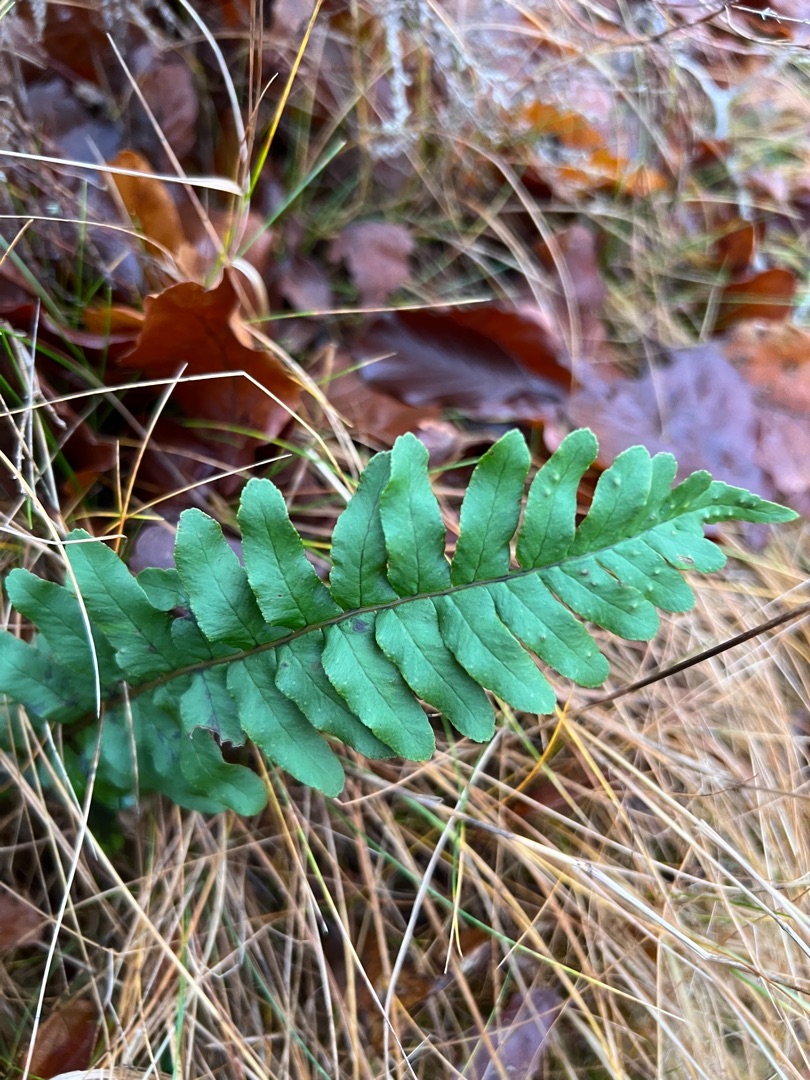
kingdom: Plantae
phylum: Tracheophyta
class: Polypodiopsida
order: Polypodiales
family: Polypodiaceae
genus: Polypodium
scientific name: Polypodium vulgare
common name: Almindelig engelsød
